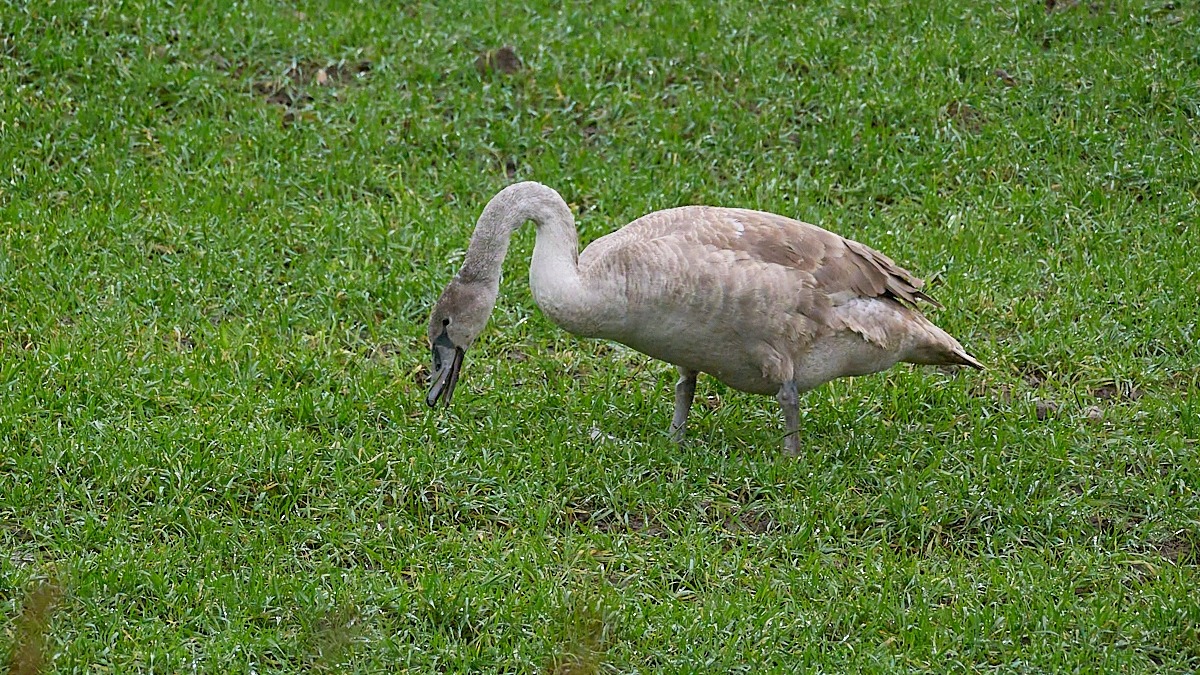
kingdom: Animalia
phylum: Chordata
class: Aves
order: Anseriformes
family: Anatidae
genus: Cygnus
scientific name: Cygnus olor
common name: Knopsvane
